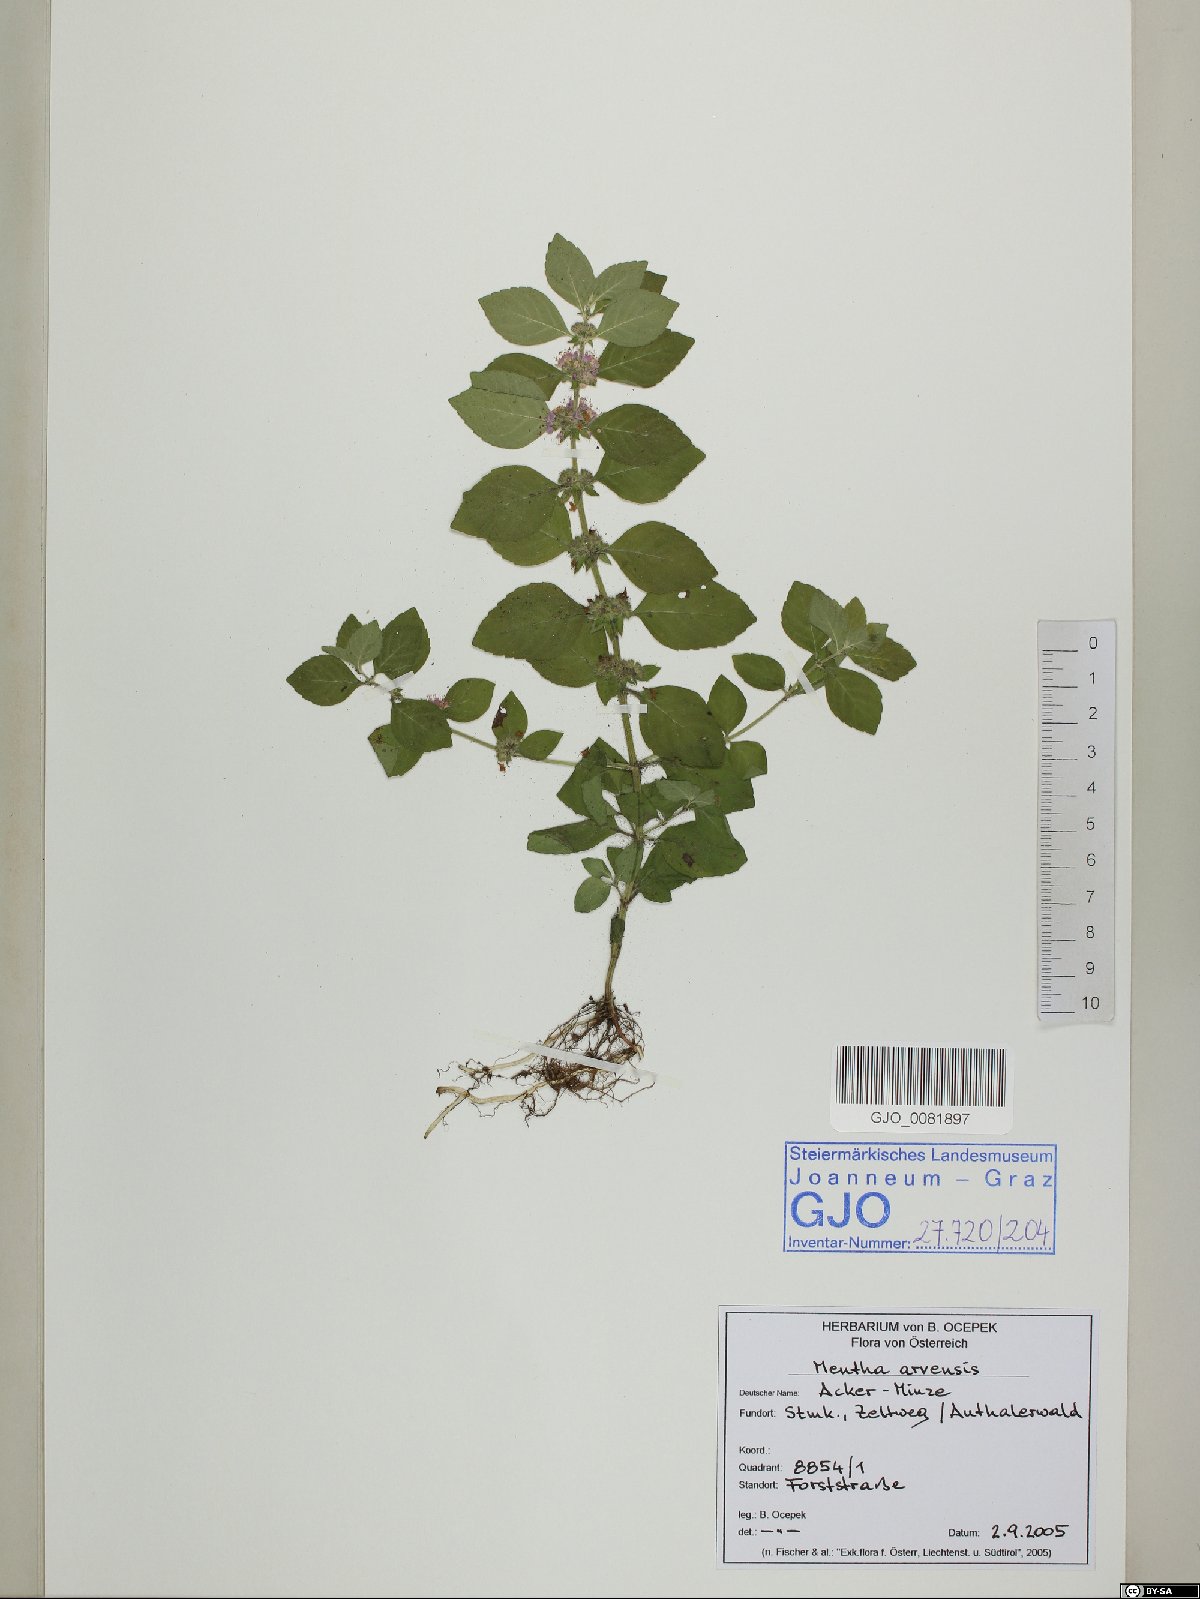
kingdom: Plantae
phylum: Tracheophyta
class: Magnoliopsida
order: Lamiales
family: Lamiaceae
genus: Mentha
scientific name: Mentha arvensis
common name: Corn mint
